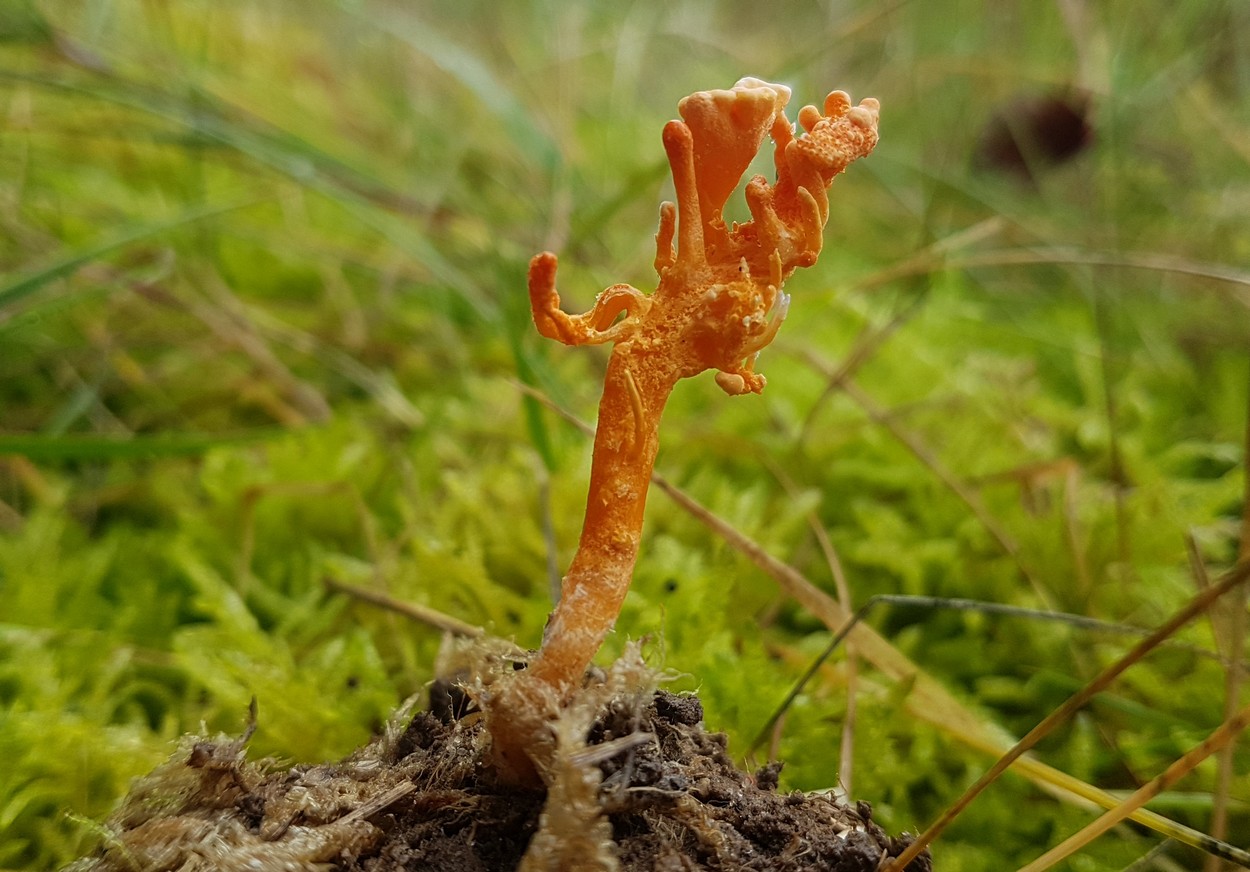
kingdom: Fungi
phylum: Ascomycota
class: Sordariomycetes
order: Hypocreales
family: Cordycipitaceae
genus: Cordyceps
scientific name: Cordyceps militaris
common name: puppe-snyltekølle
